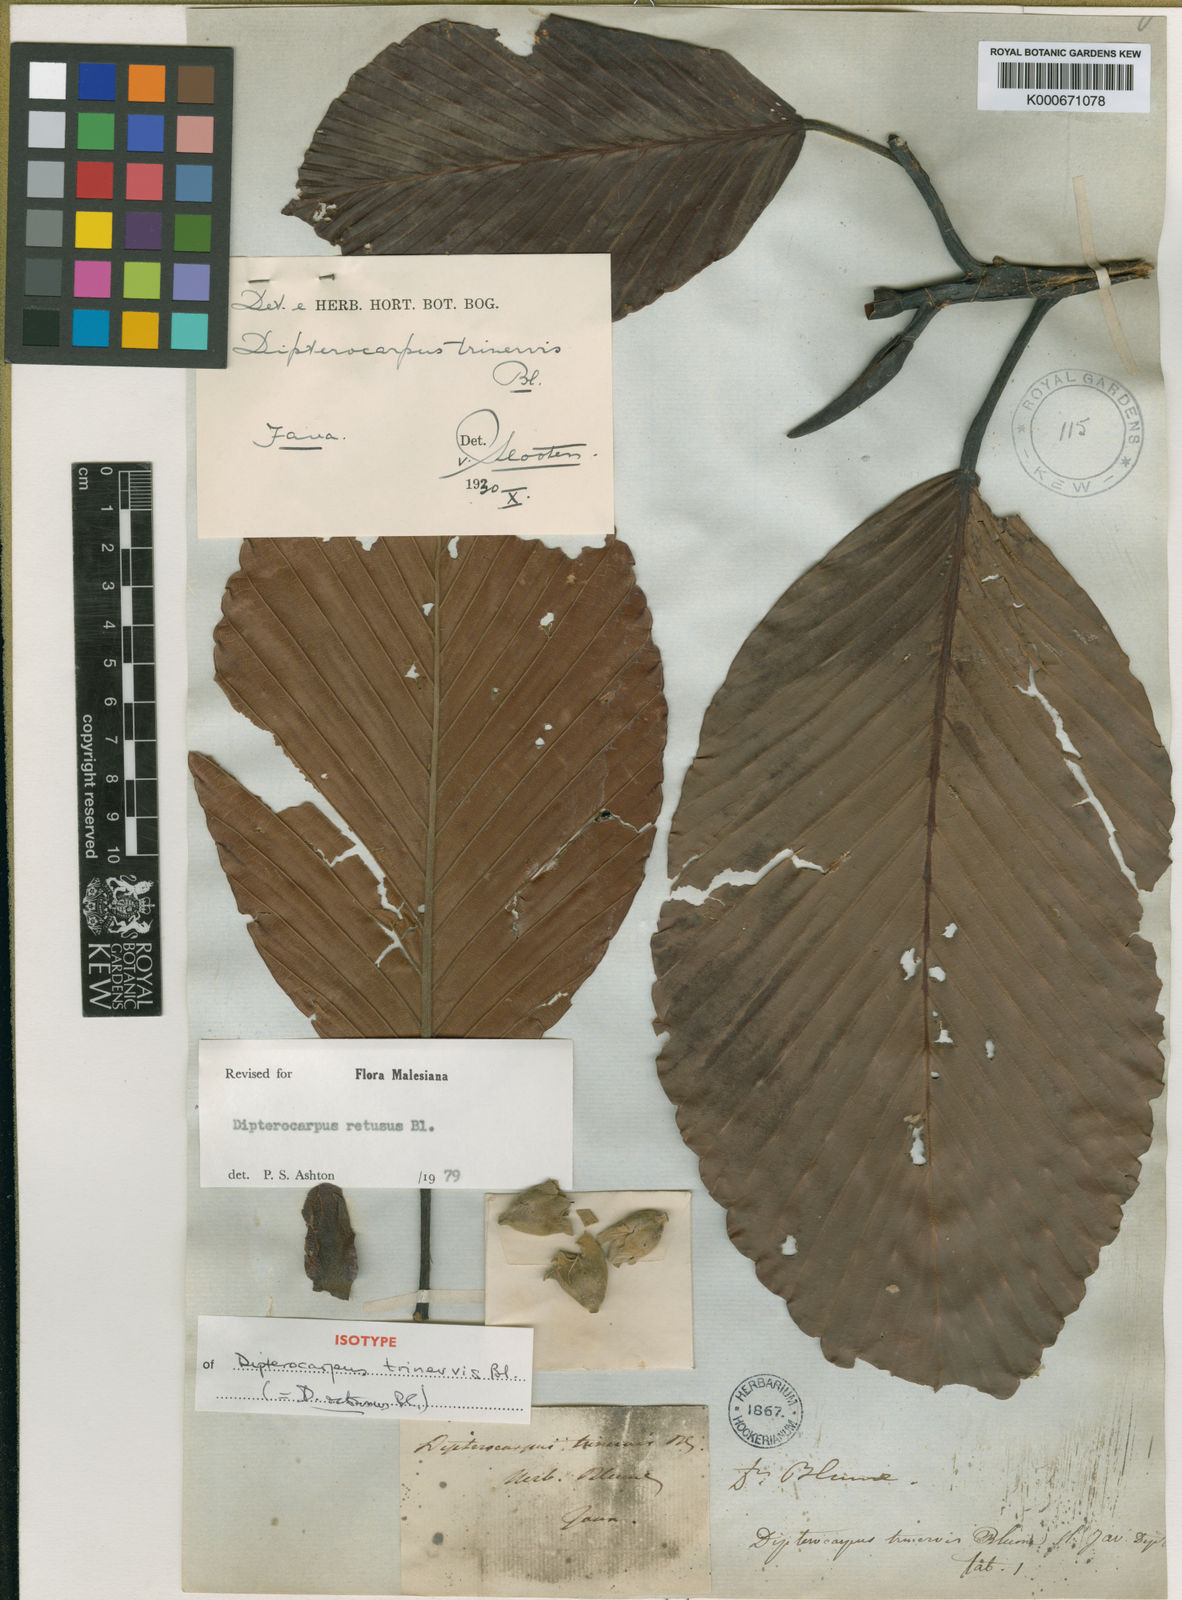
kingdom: Plantae
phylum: Tracheophyta
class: Magnoliopsida
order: Malvales
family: Dipterocarpaceae
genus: Dipterocarpus
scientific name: Dipterocarpus retusus
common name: Hollong
